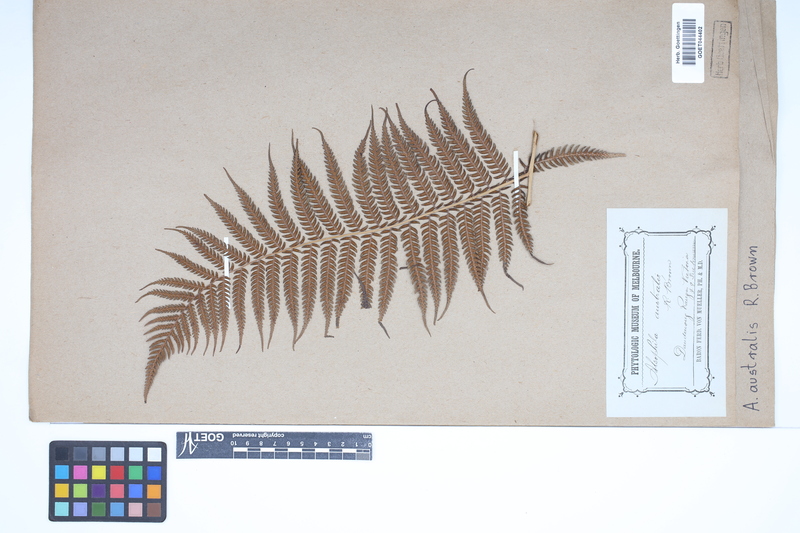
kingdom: Plantae
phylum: Tracheophyta
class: Polypodiopsida
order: Cyatheales
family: Cyatheaceae
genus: Alsophila
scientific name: Alsophila australis
